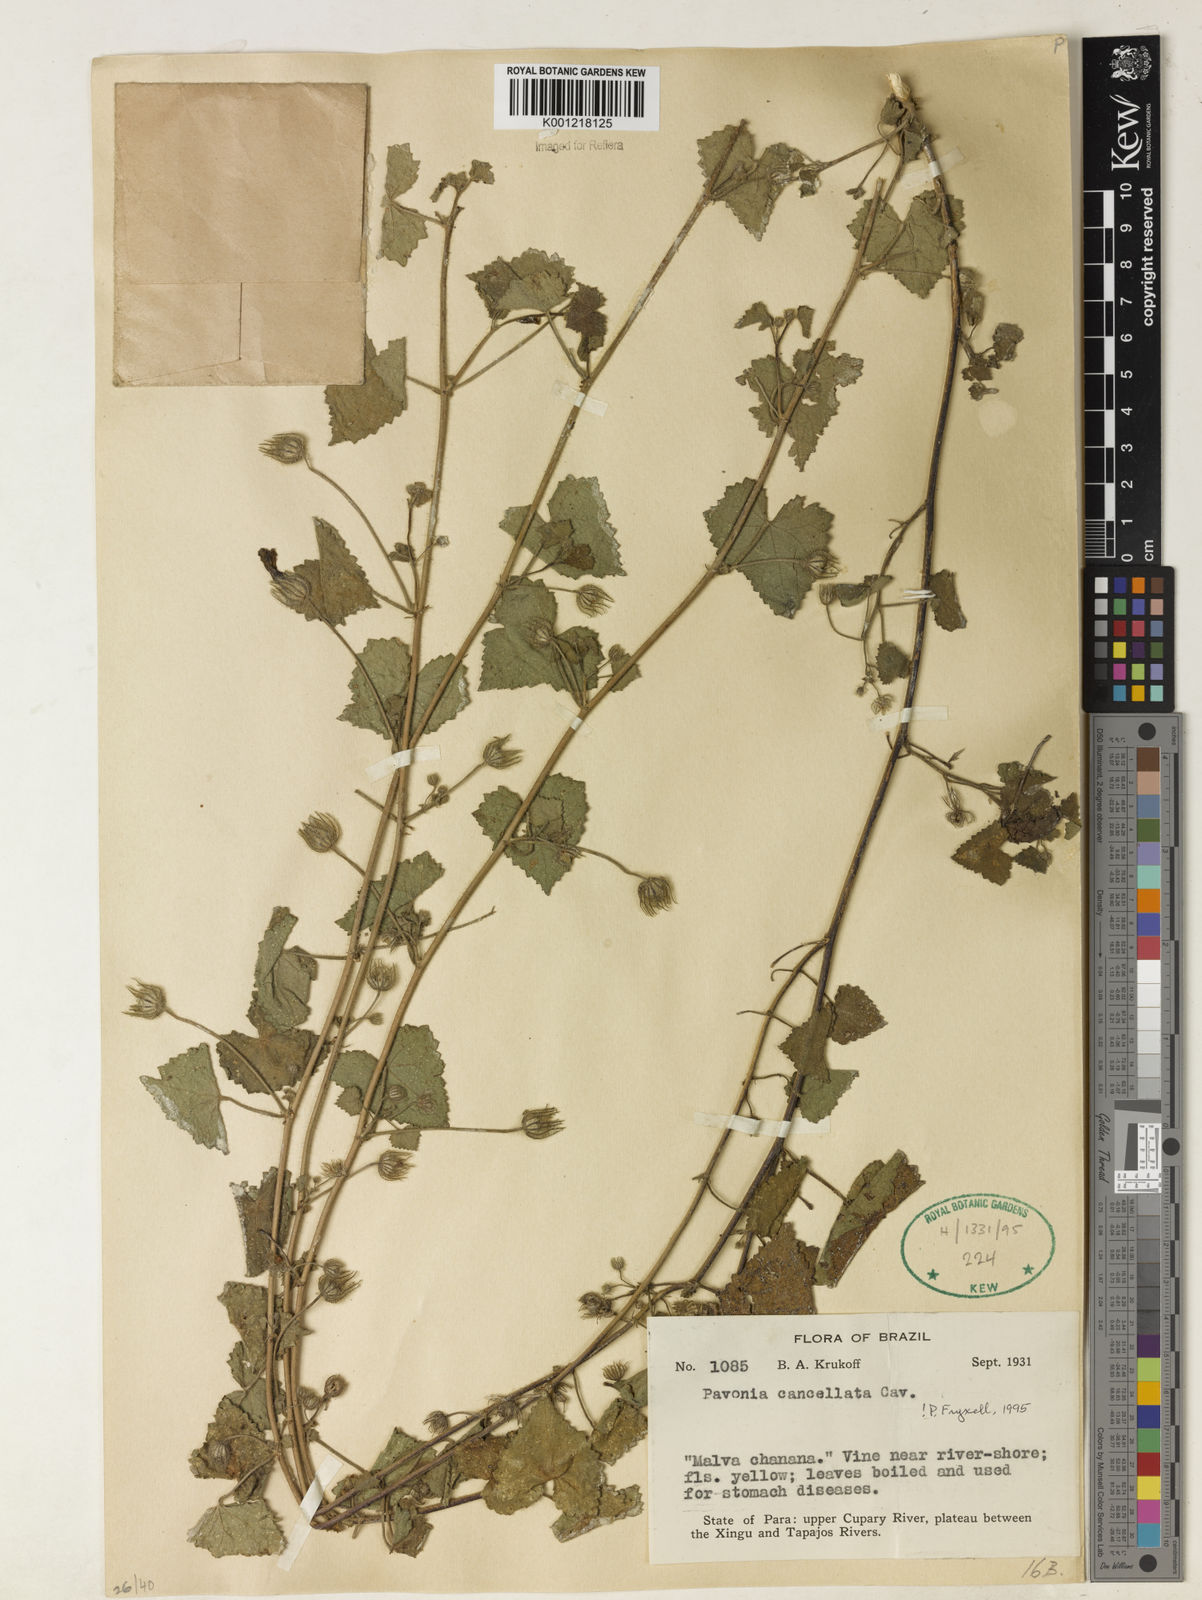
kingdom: Plantae
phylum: Tracheophyta
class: Magnoliopsida
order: Malvales
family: Malvaceae
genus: Pavonia
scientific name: Pavonia cancellata
